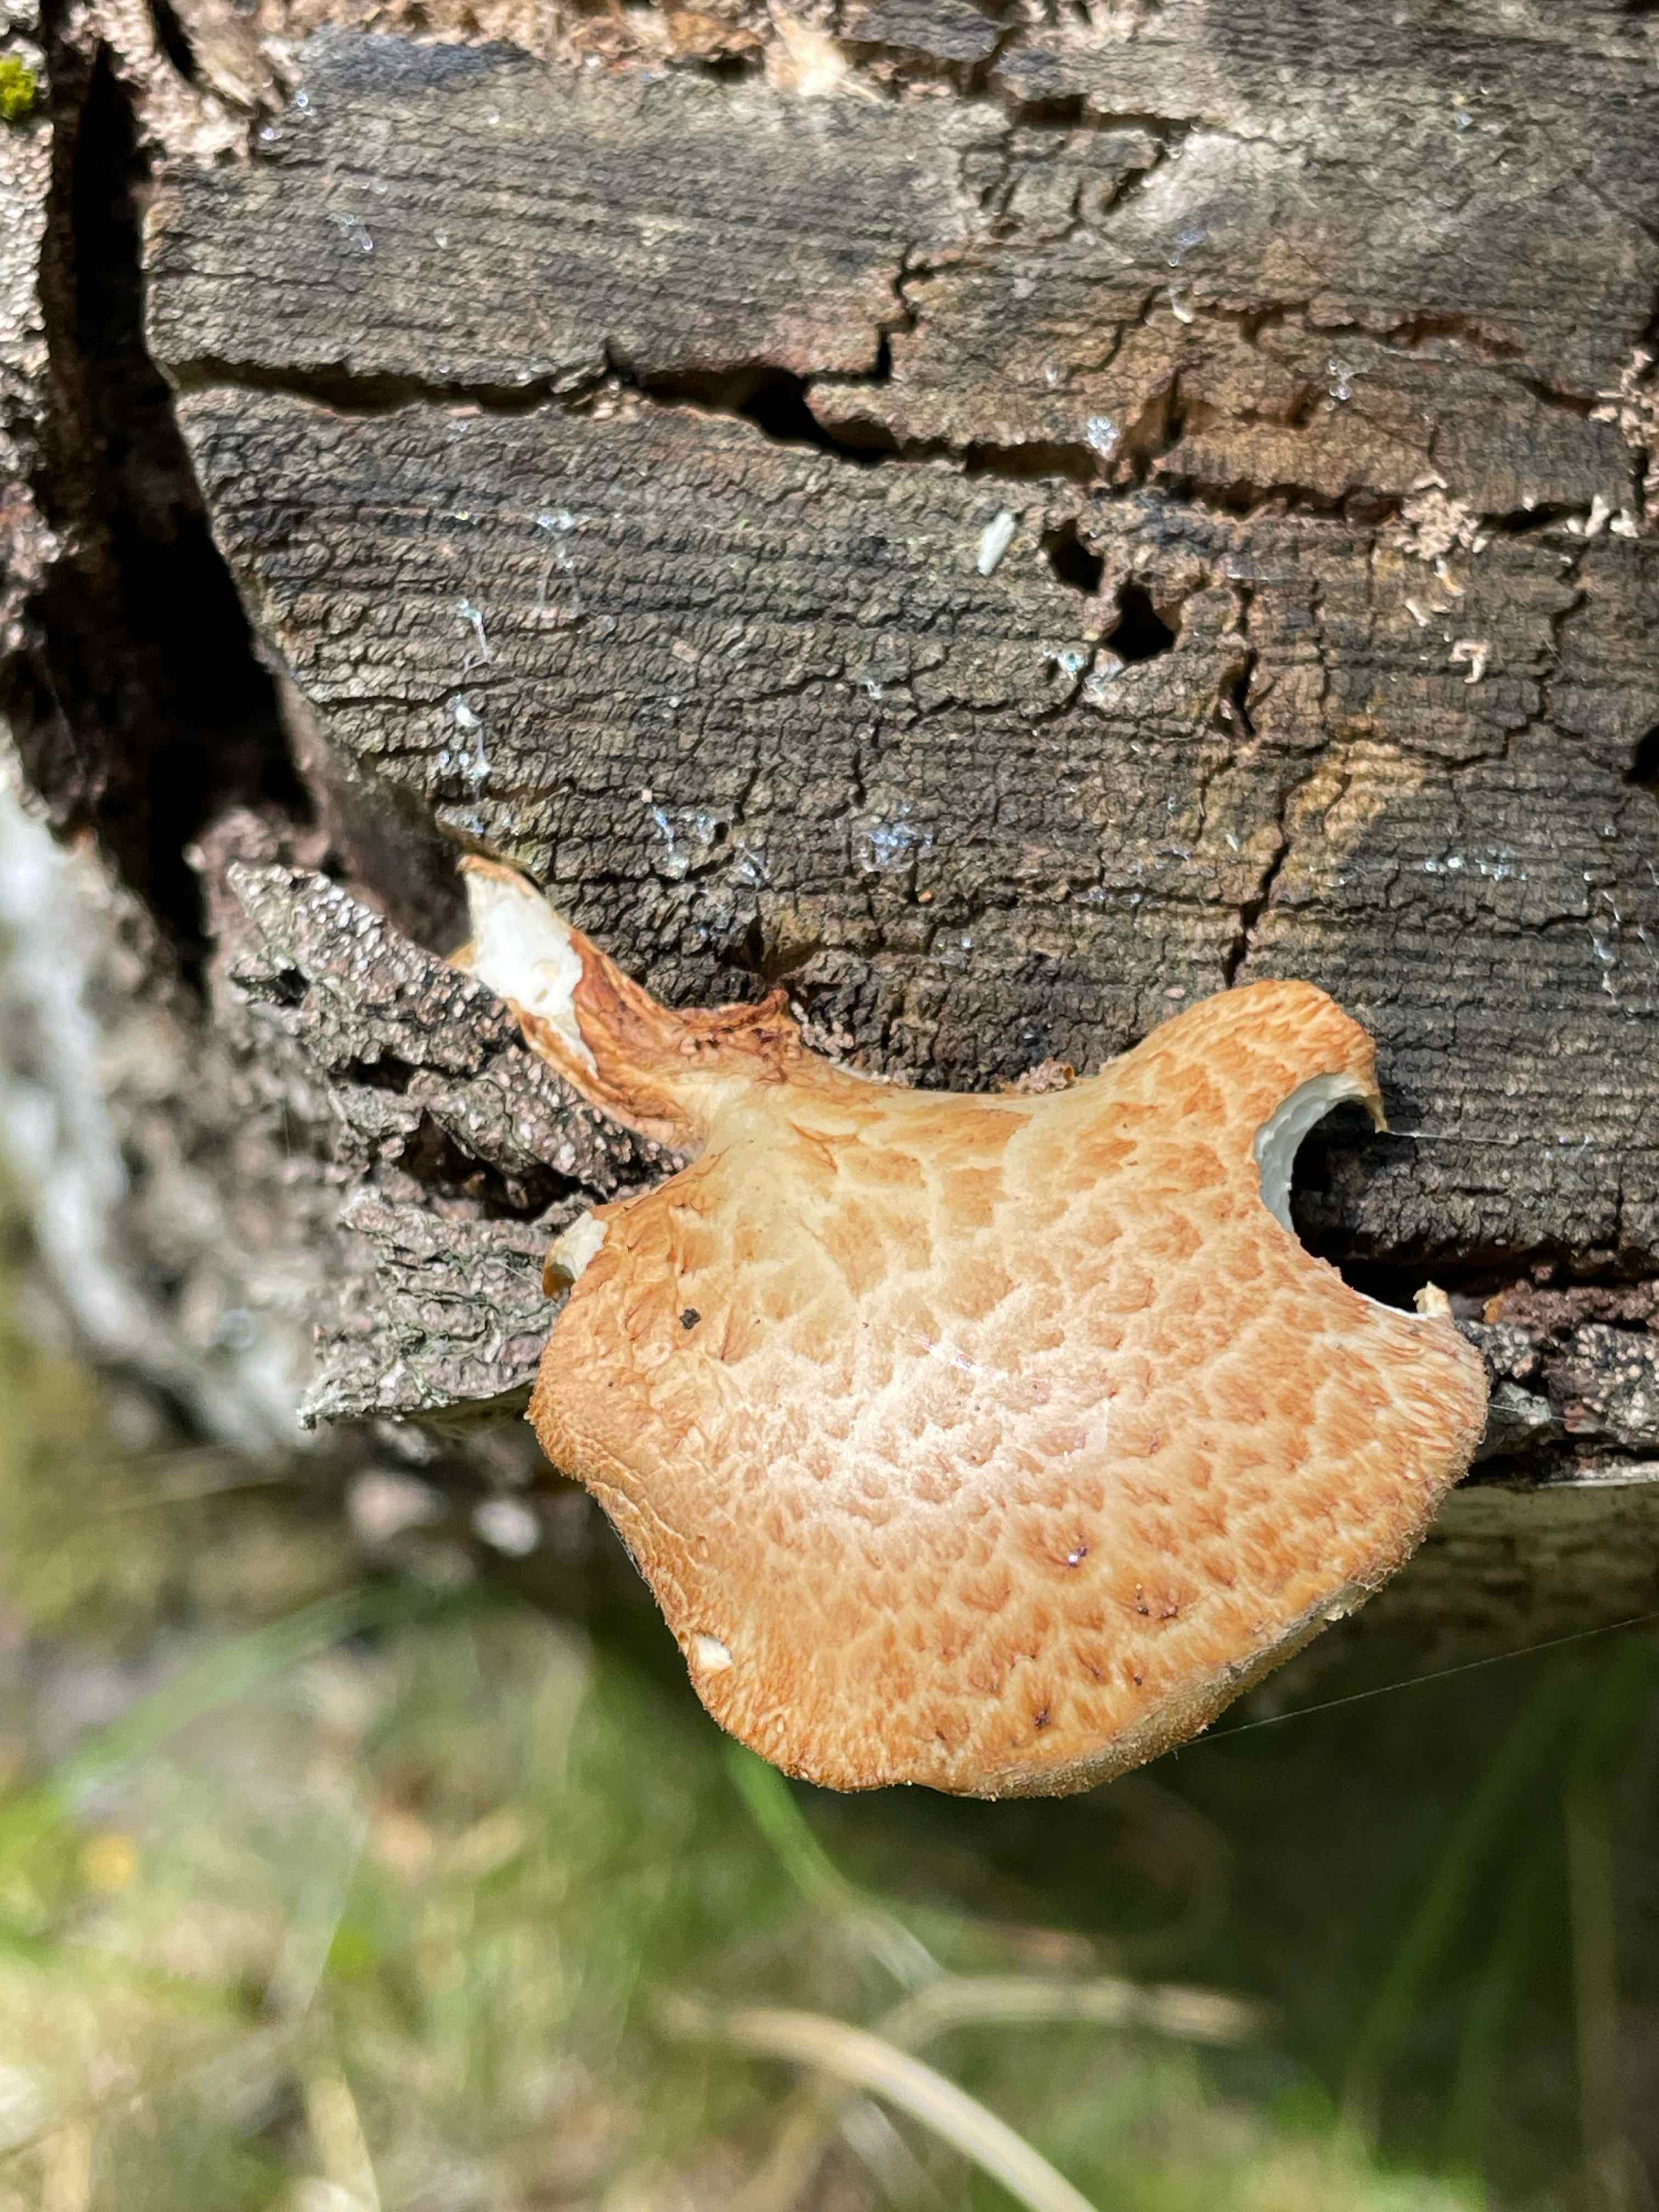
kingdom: Fungi
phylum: Basidiomycota
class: Agaricomycetes
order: Polyporales
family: Polyporaceae
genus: Polyporus
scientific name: Polyporus tuberaster
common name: knoldet stilkporesvamp
